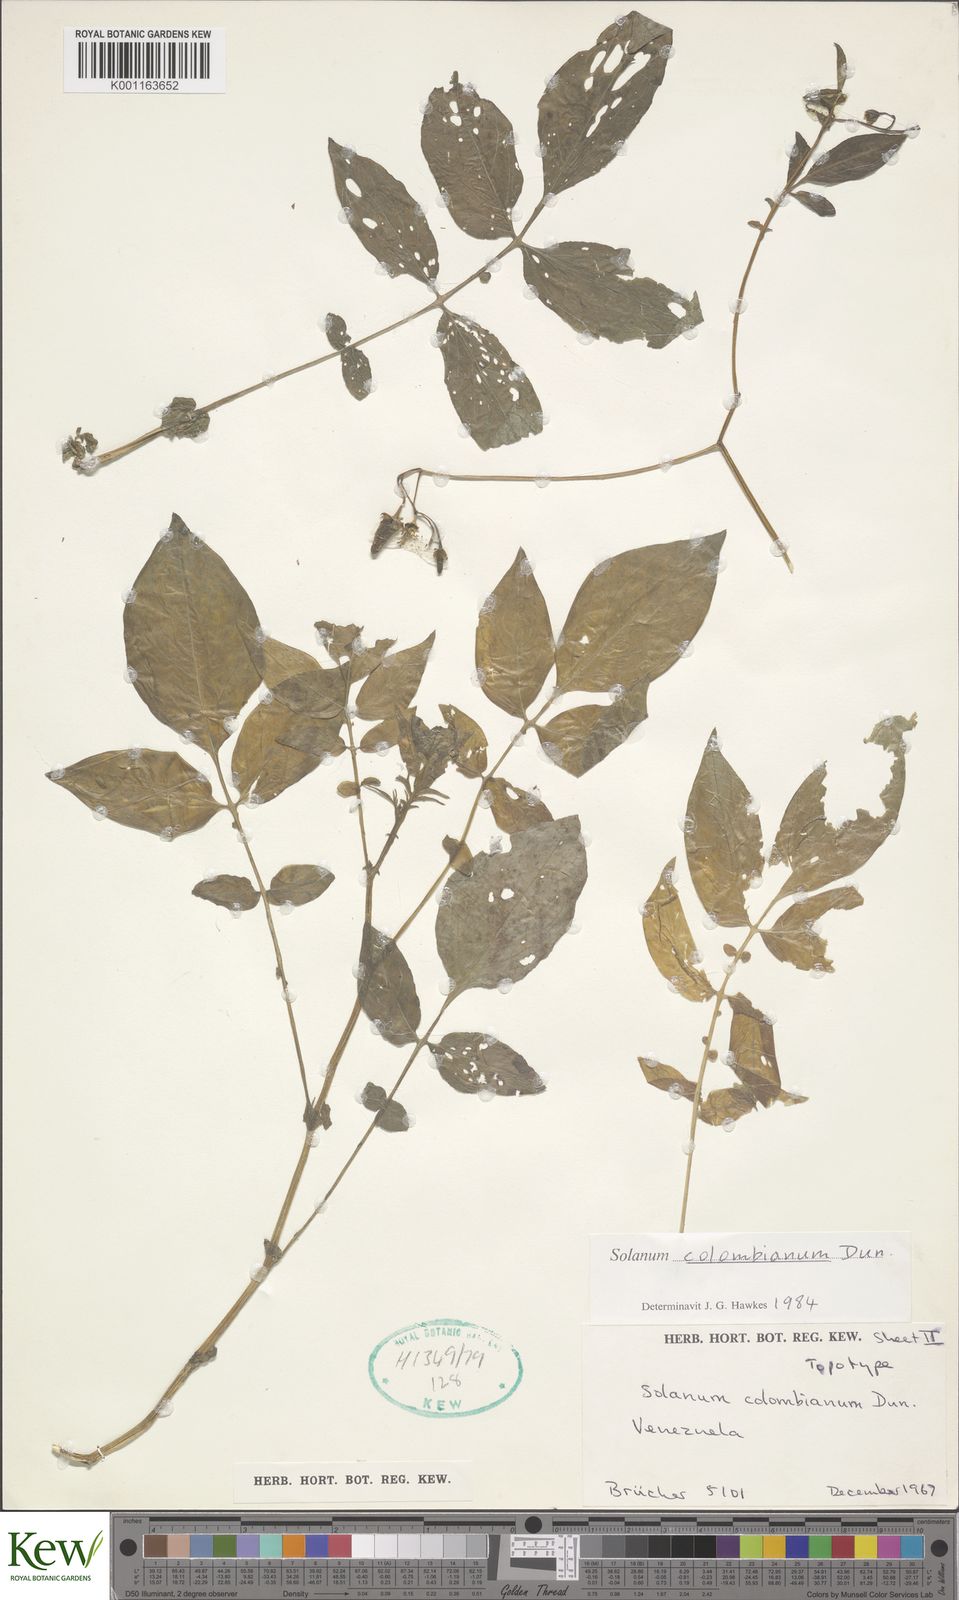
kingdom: Plantae
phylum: Tracheophyta
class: Magnoliopsida
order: Solanales
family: Solanaceae
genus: Solanum
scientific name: Solanum colombianum
